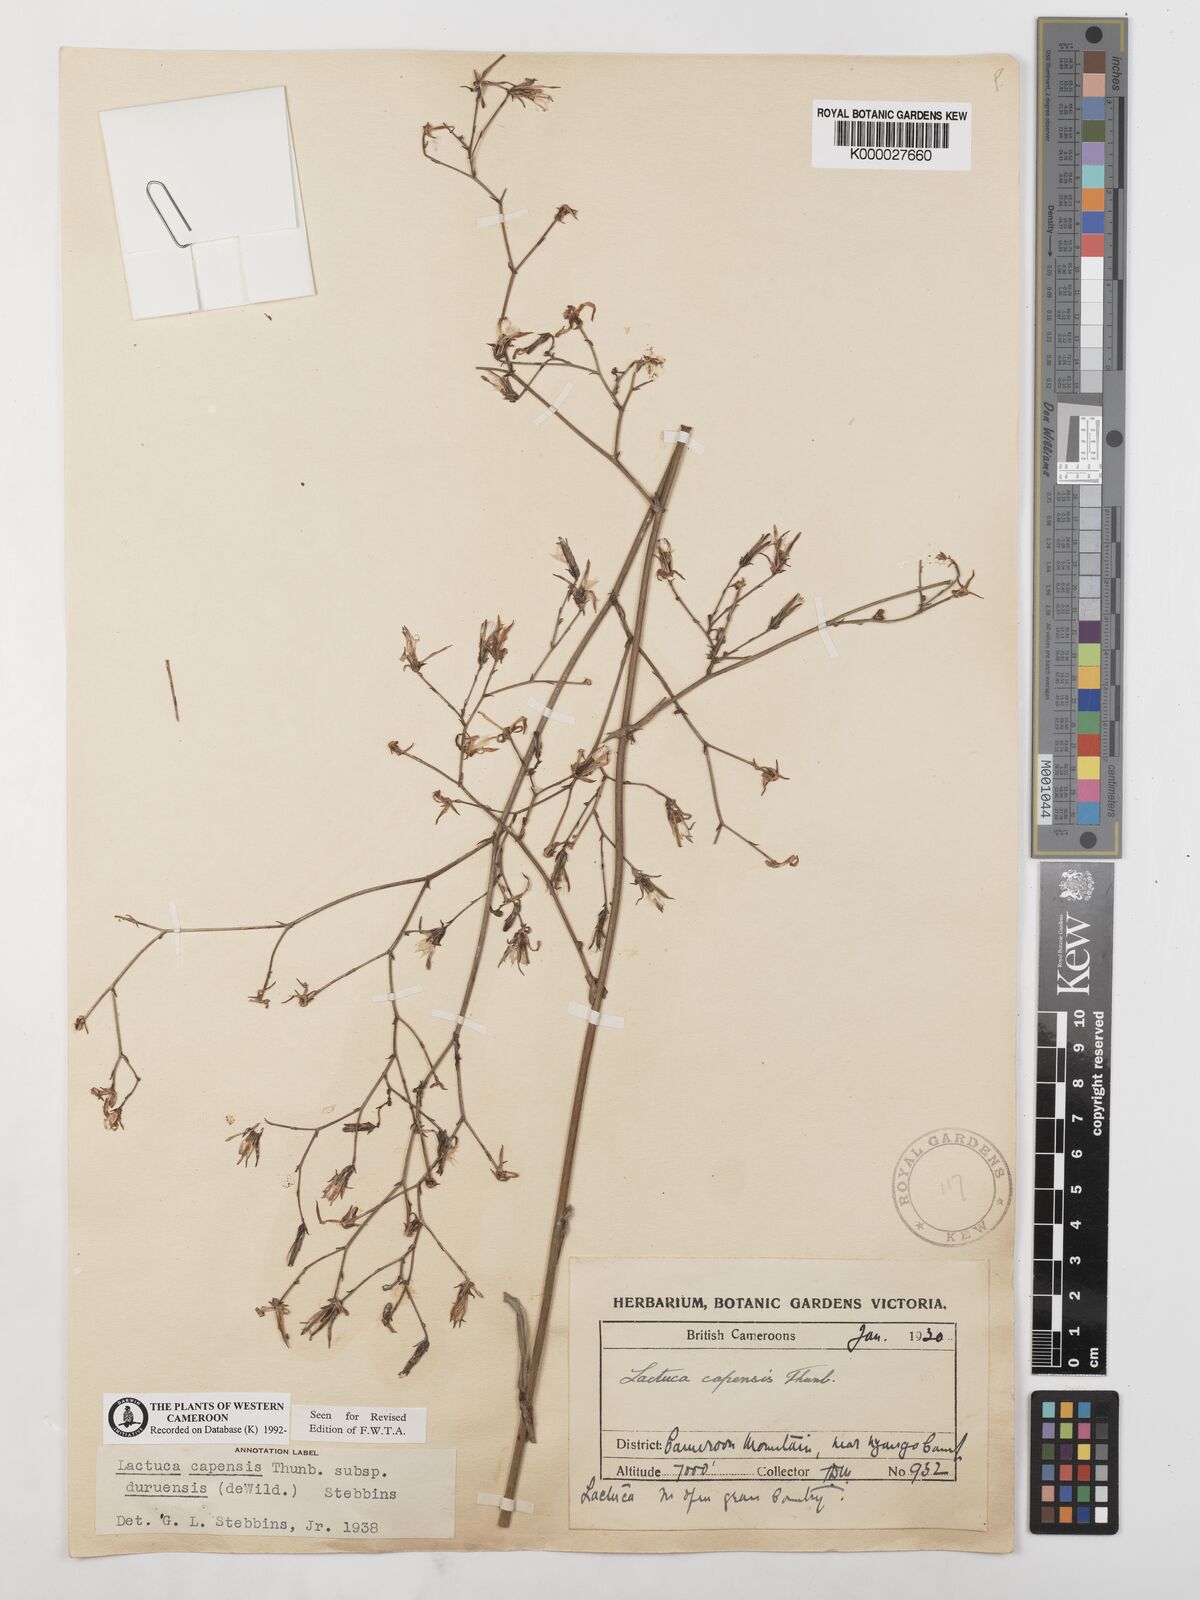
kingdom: Plantae
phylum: Tracheophyta
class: Magnoliopsida
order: Asterales
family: Asteraceae
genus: Lactuca
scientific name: Lactuca inermis
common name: Wild lettuce
